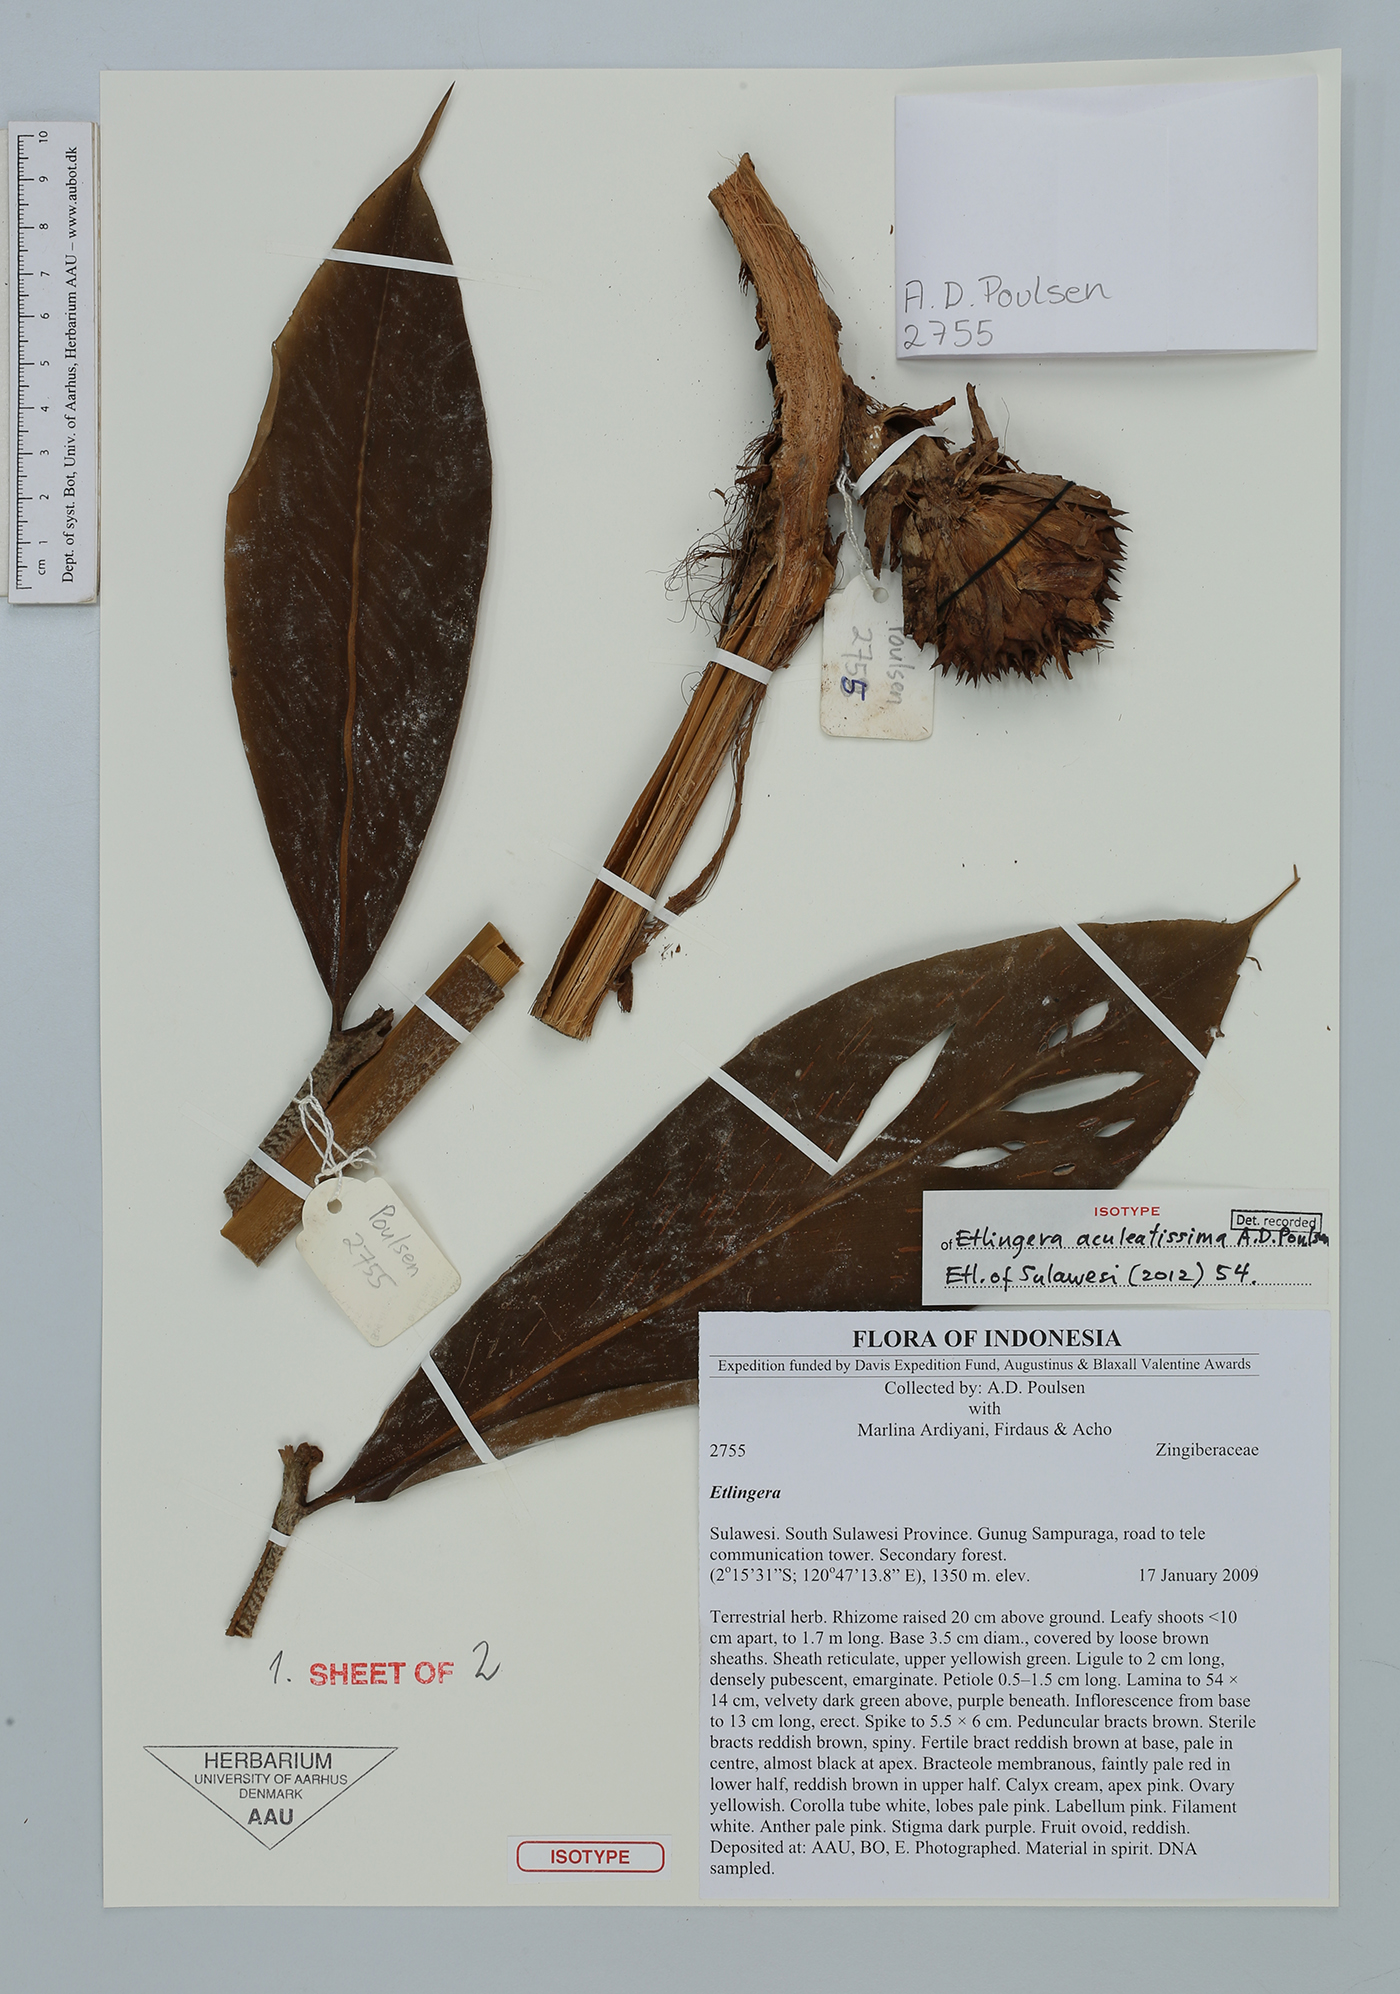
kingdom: Plantae
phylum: Tracheophyta
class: Liliopsida
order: Zingiberales
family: Zingiberaceae
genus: Etlingera
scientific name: Etlingera aculeatissima
